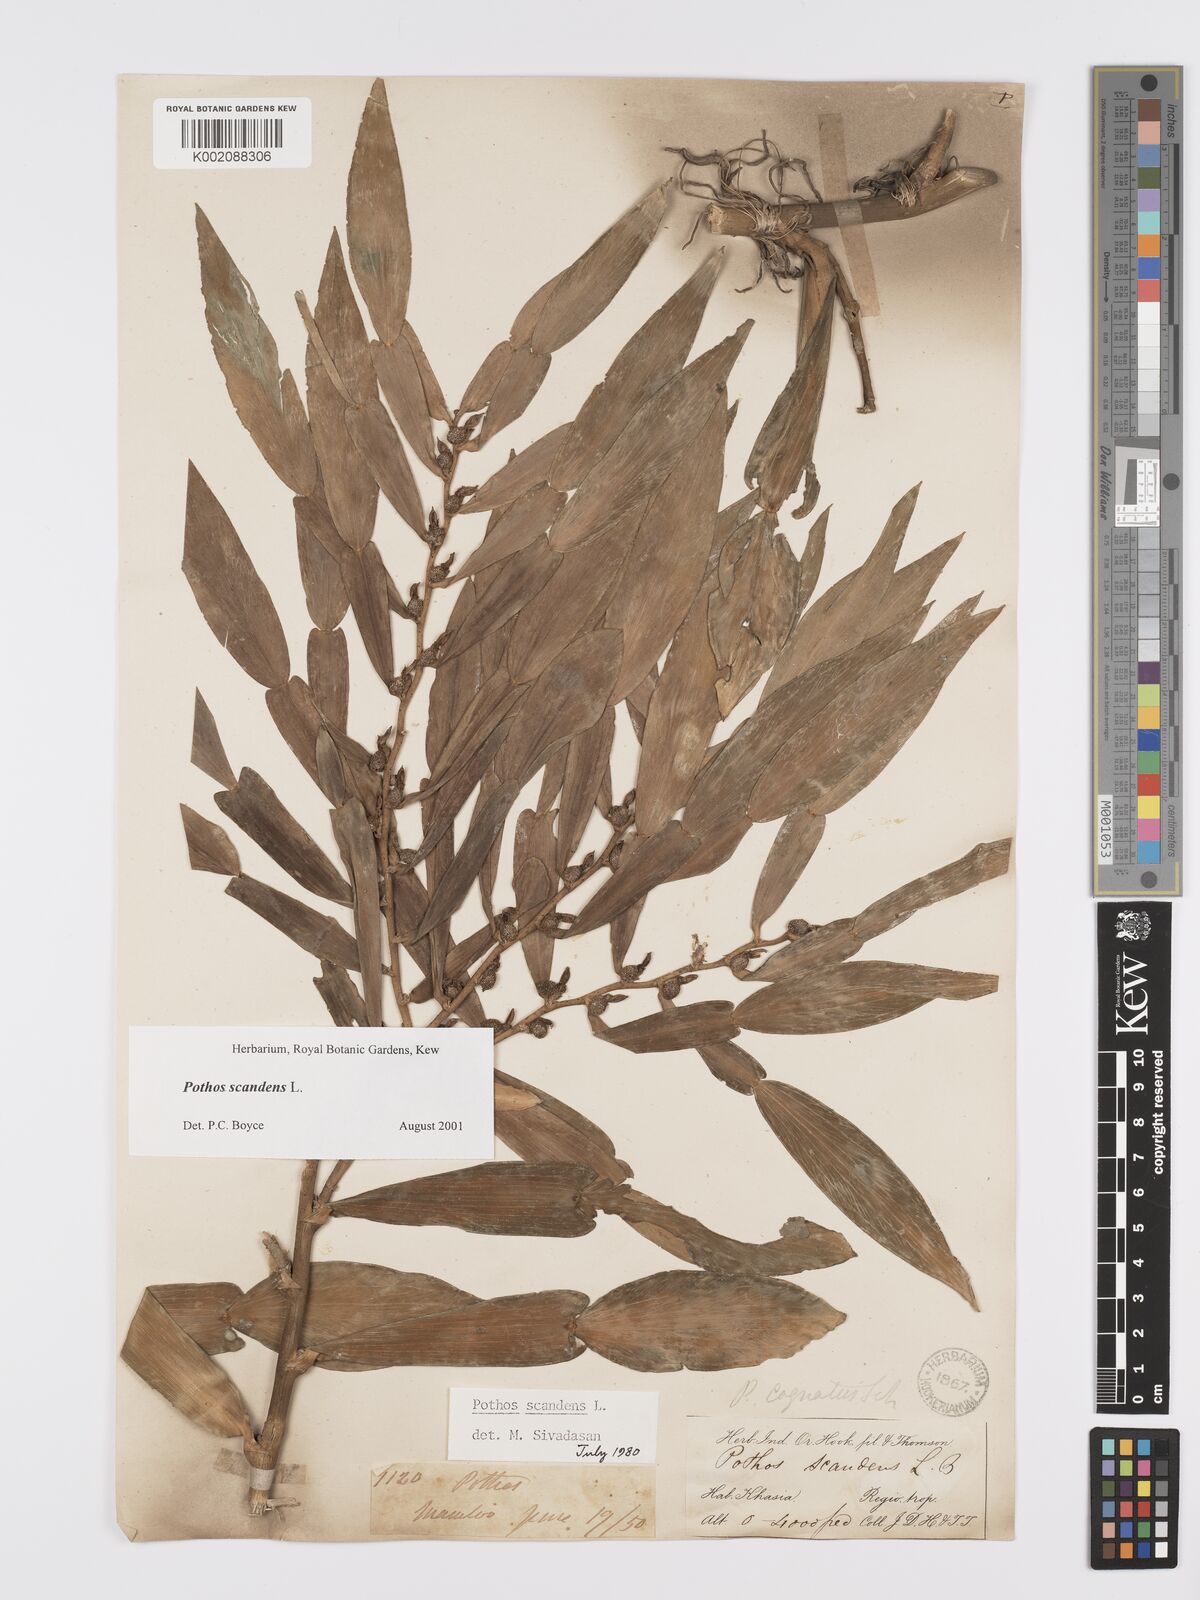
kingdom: Plantae
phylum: Tracheophyta
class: Liliopsida
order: Alismatales
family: Araceae
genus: Pothos
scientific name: Pothos scandens
